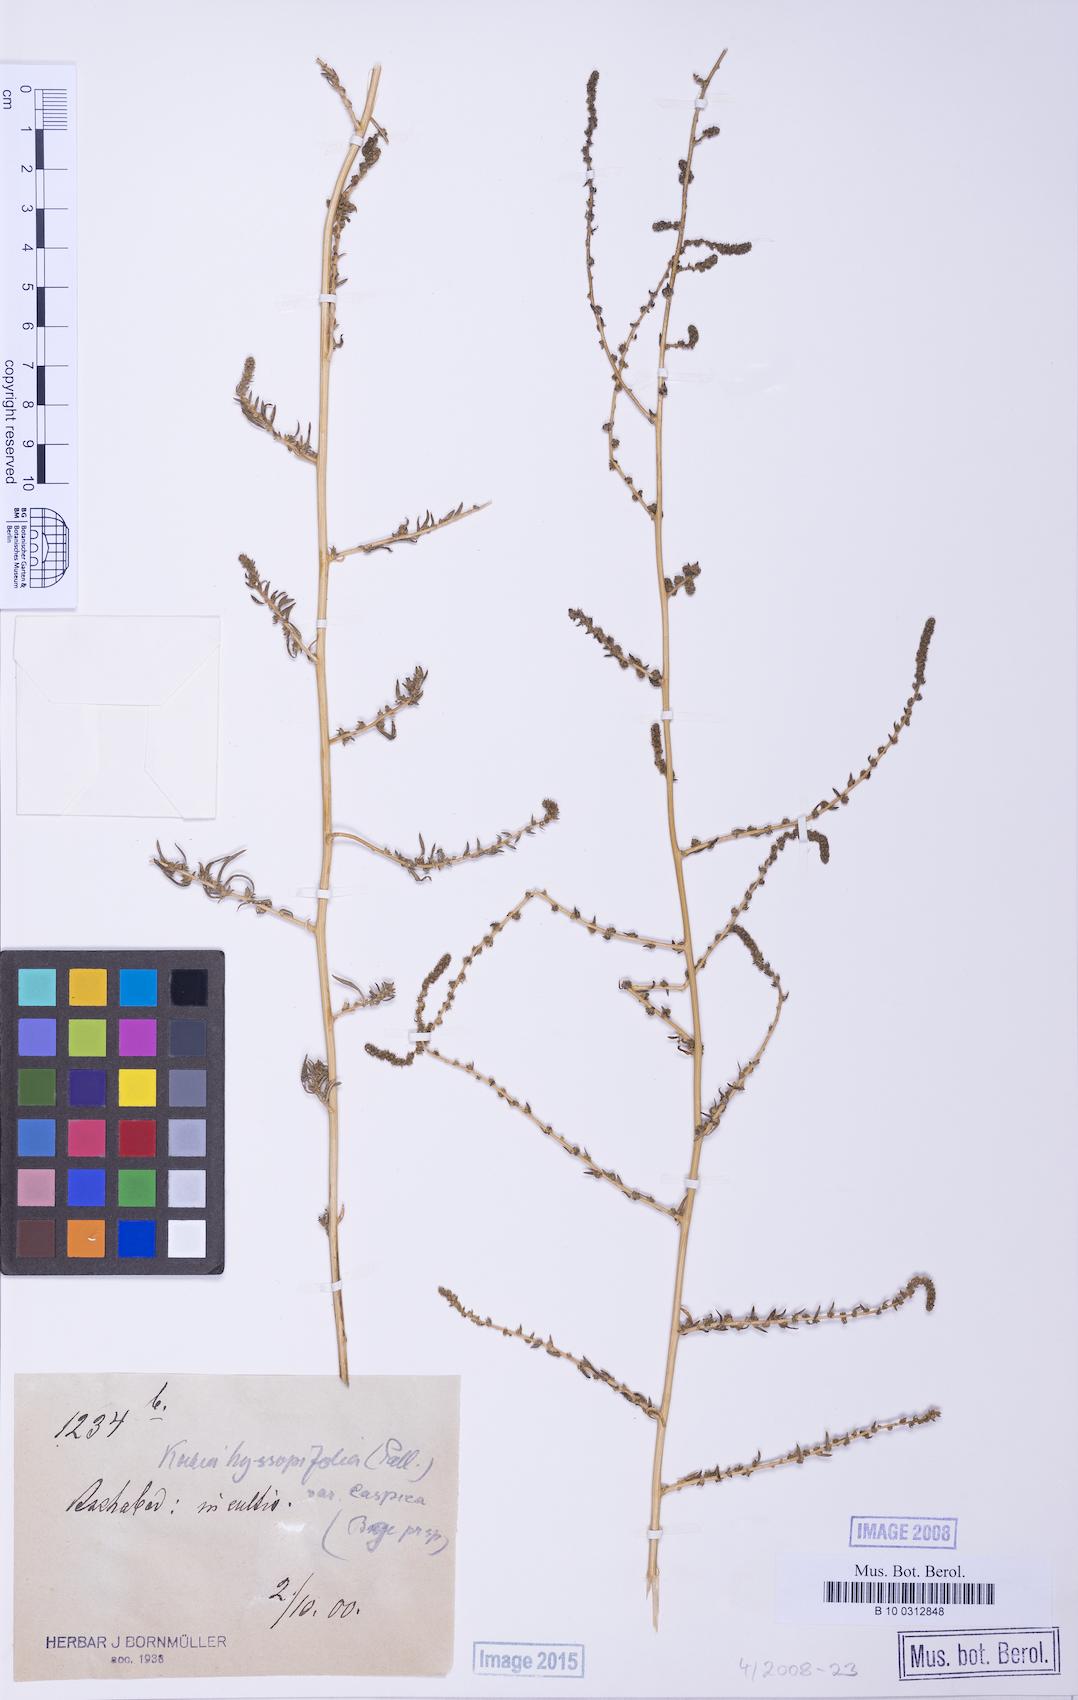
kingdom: Plantae
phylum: Tracheophyta
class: Magnoliopsida
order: Caryophyllales
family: Amaranthaceae
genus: Bassia
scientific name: Bassia hyssopifolia
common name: Fivehorn smotherweed
